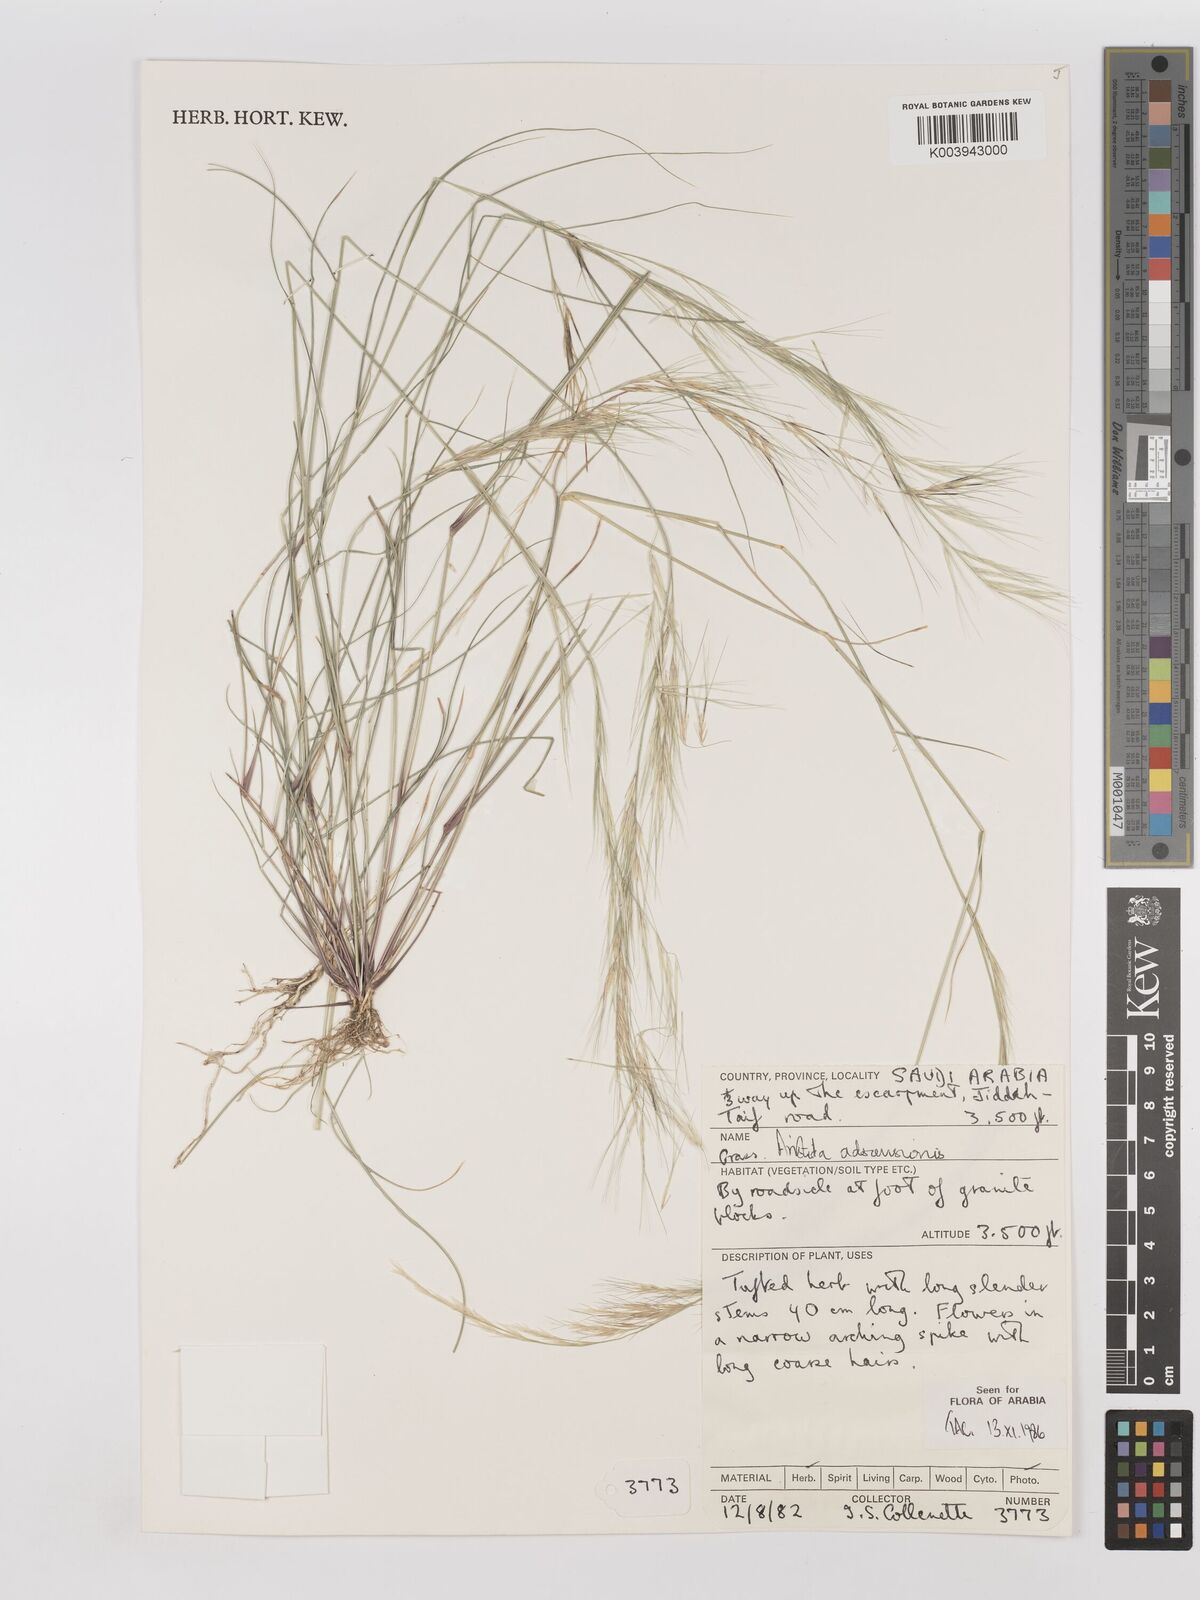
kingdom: Plantae
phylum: Tracheophyta
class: Liliopsida
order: Poales
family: Poaceae
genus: Aristida
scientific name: Aristida adscensionis
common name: Sixweeks threeawn
